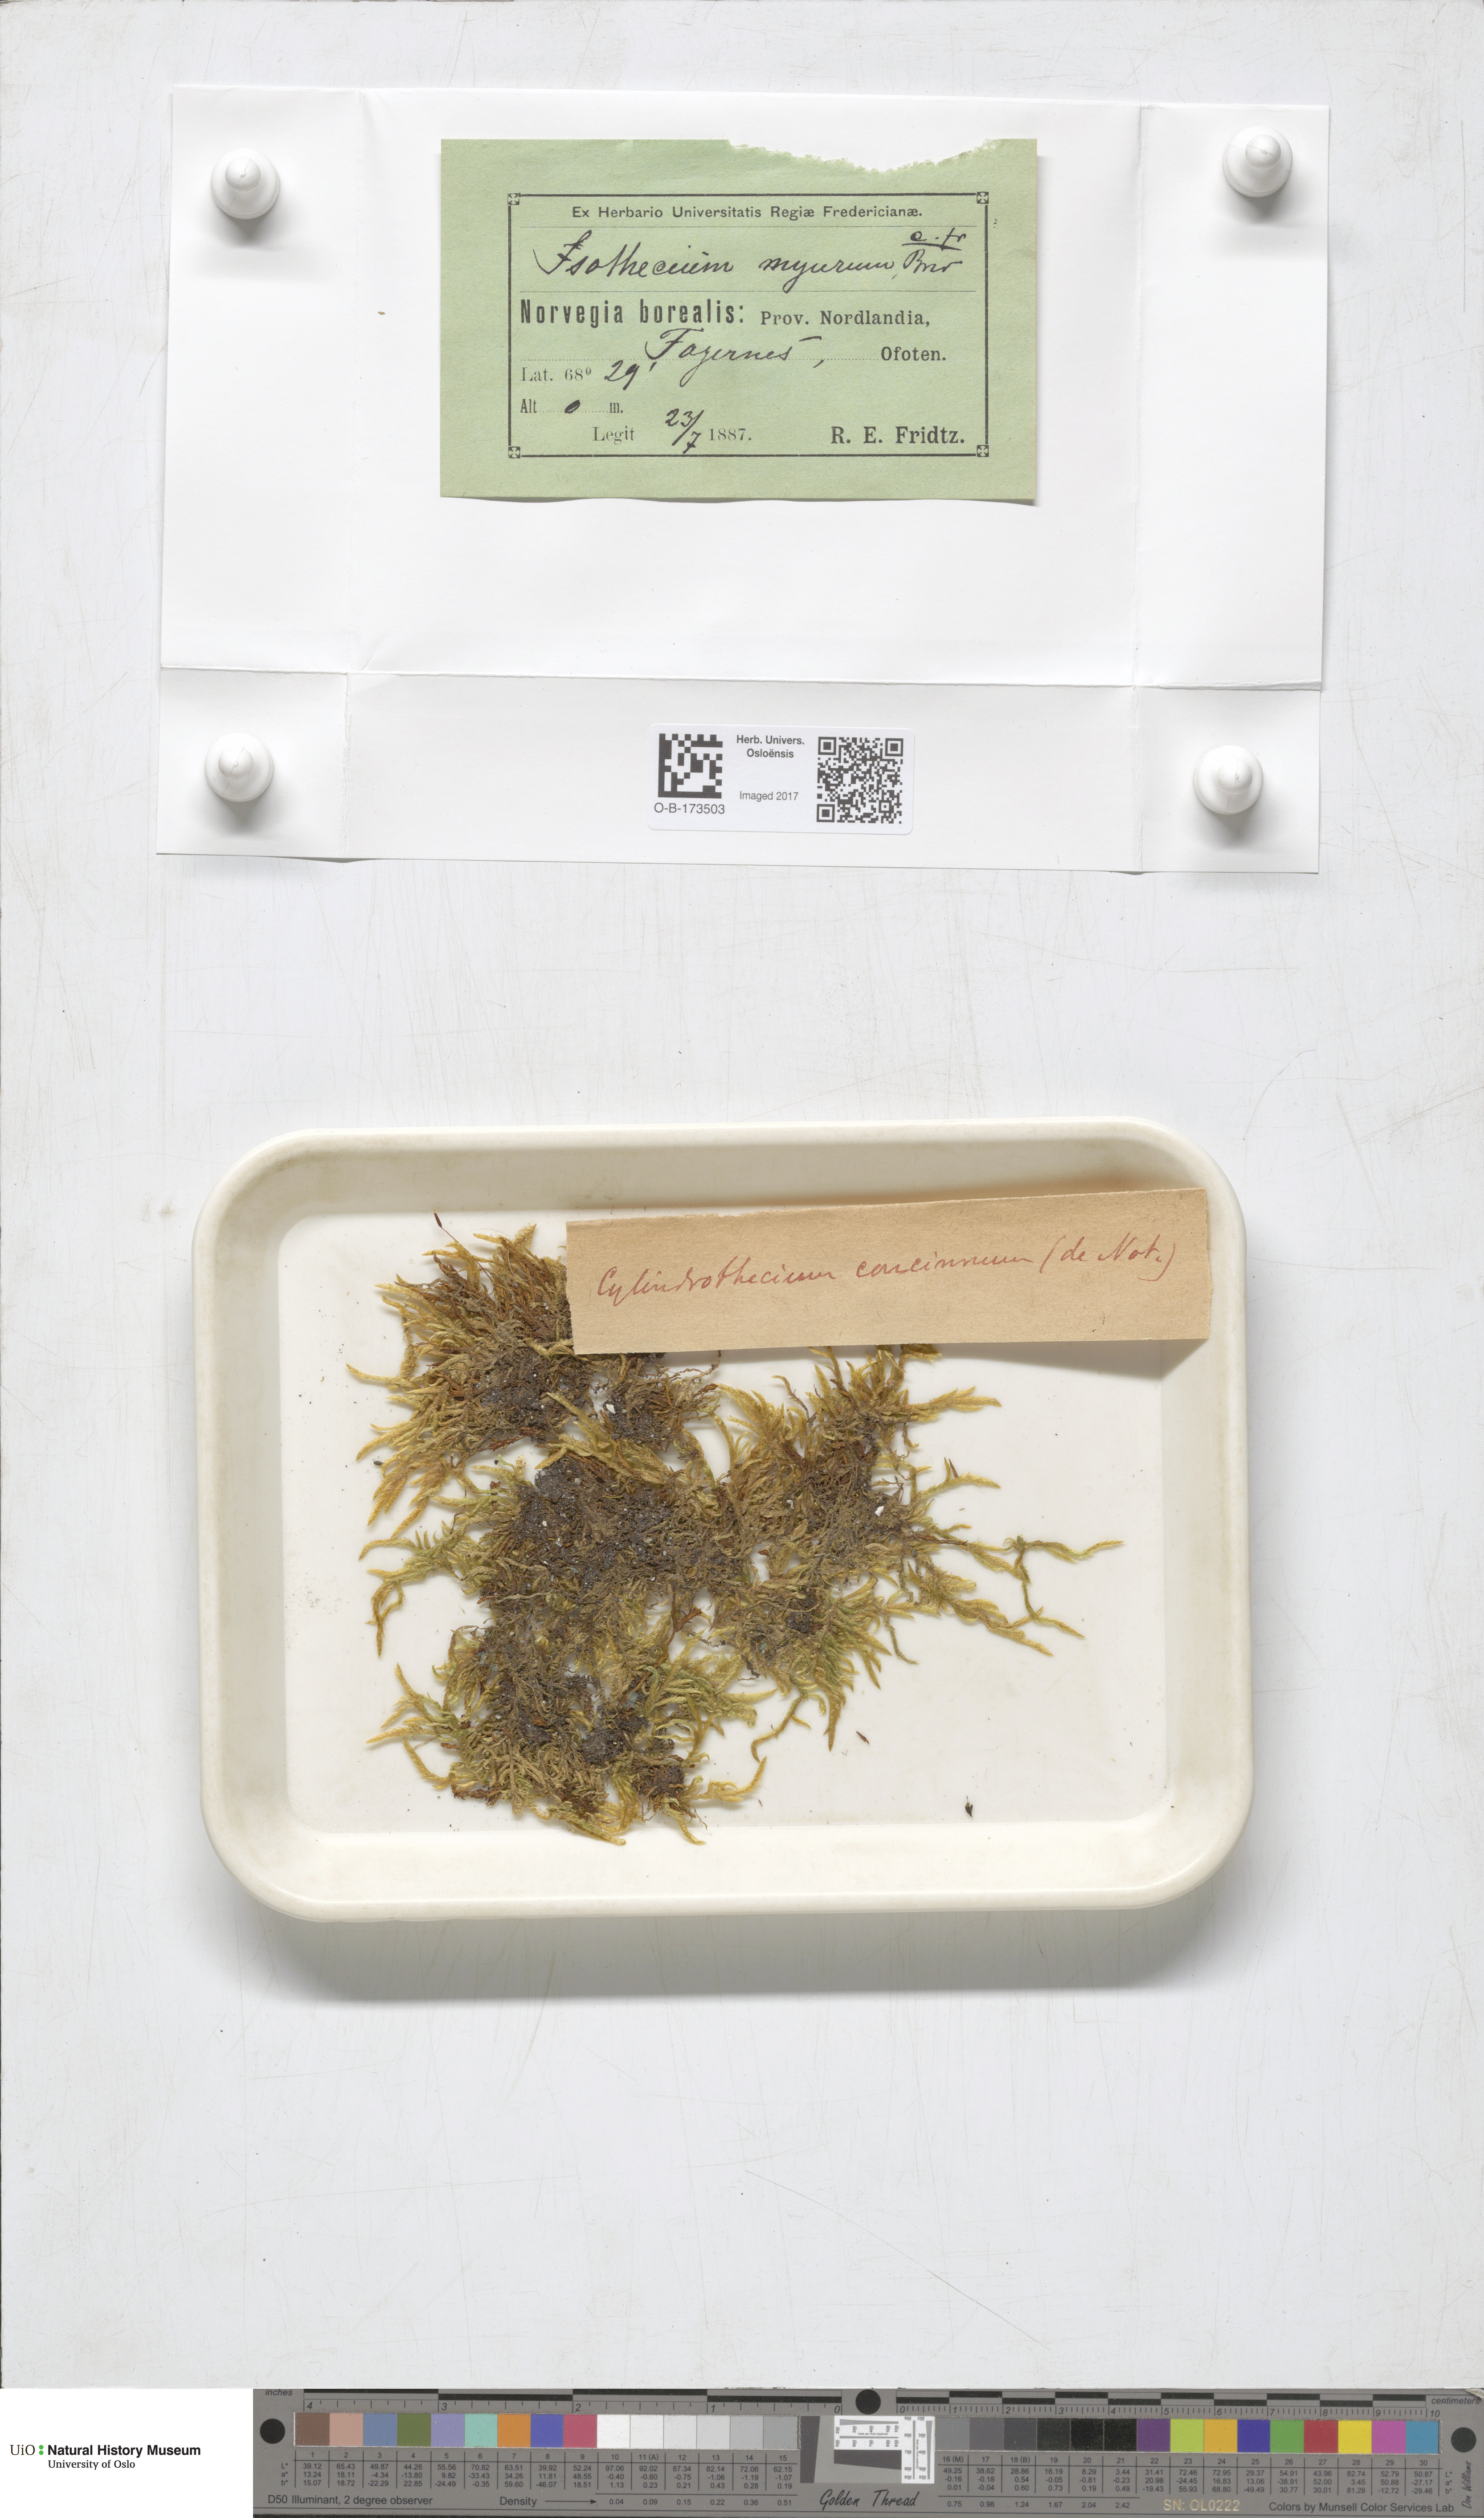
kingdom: Plantae
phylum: Bryophyta
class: Bryopsida
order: Hypnales
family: Entodontaceae
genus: Entodon
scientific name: Entodon concinnus
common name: Montagne's cylinder-moss
